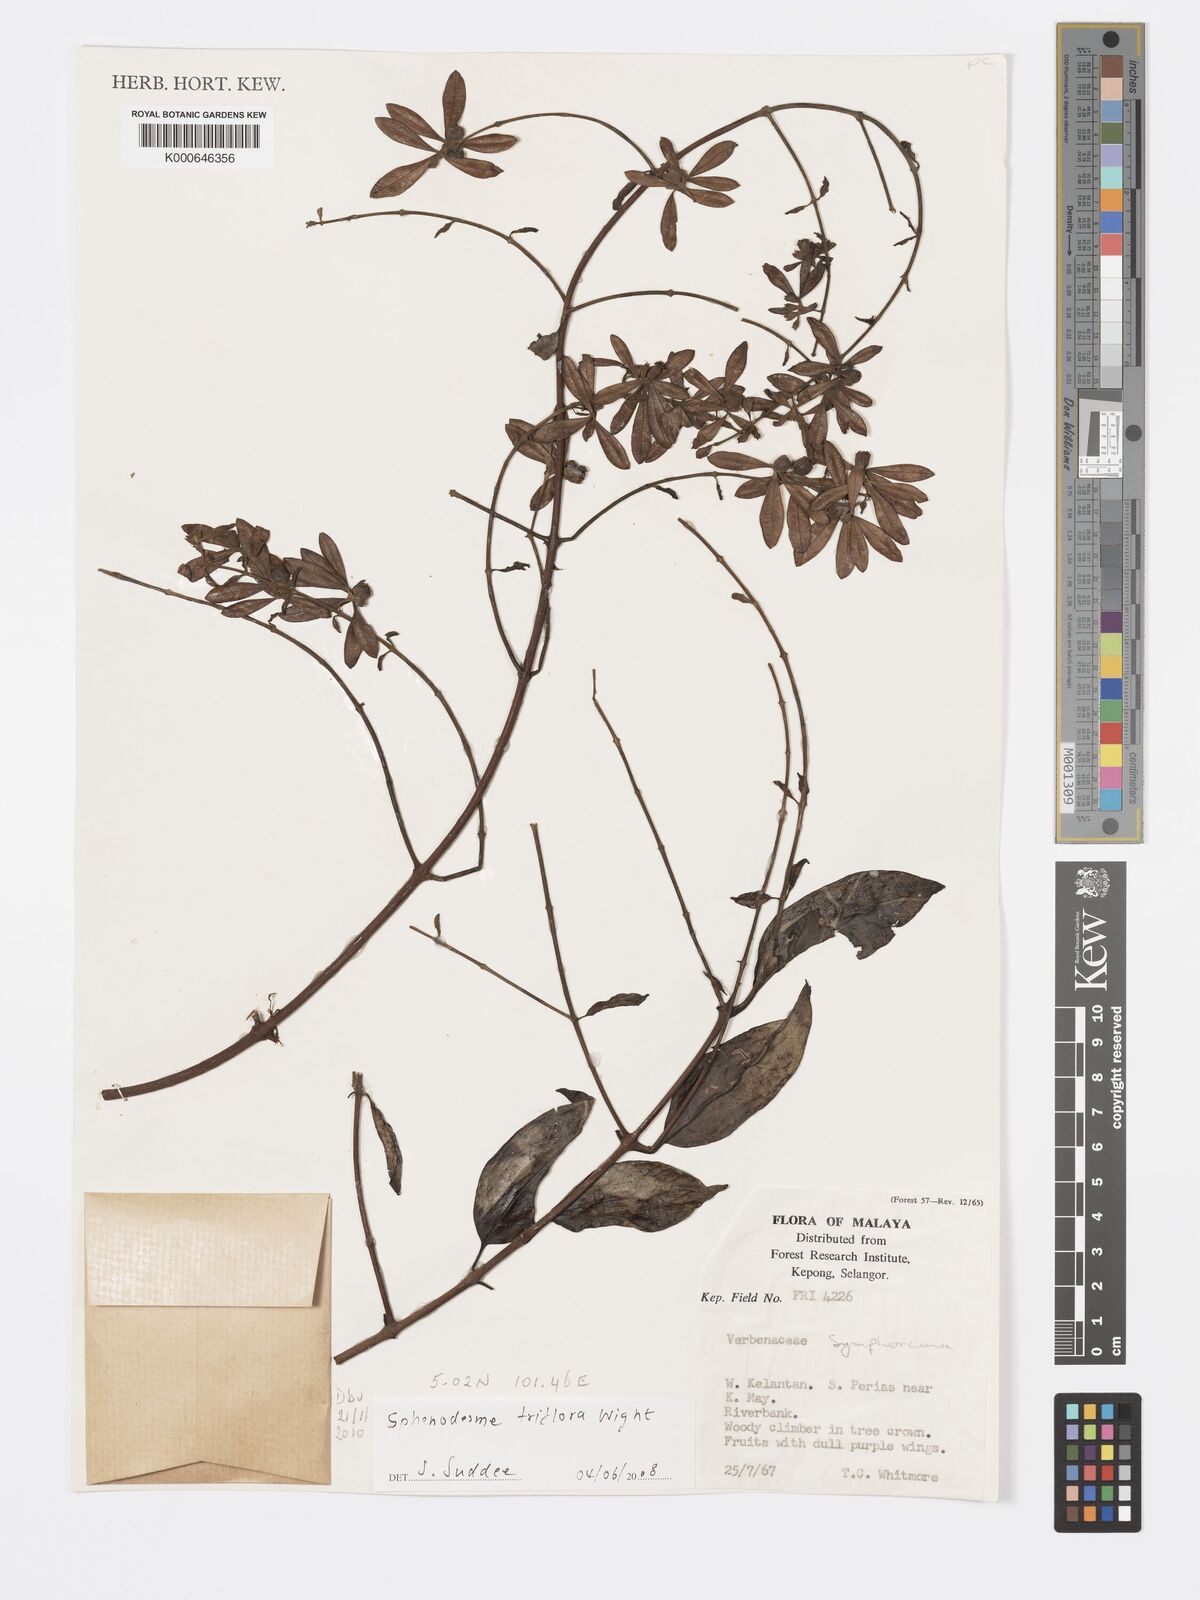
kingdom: Plantae
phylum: Tracheophyta
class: Magnoliopsida
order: Lamiales
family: Lamiaceae
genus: Sphenodesme
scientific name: Sphenodesme
